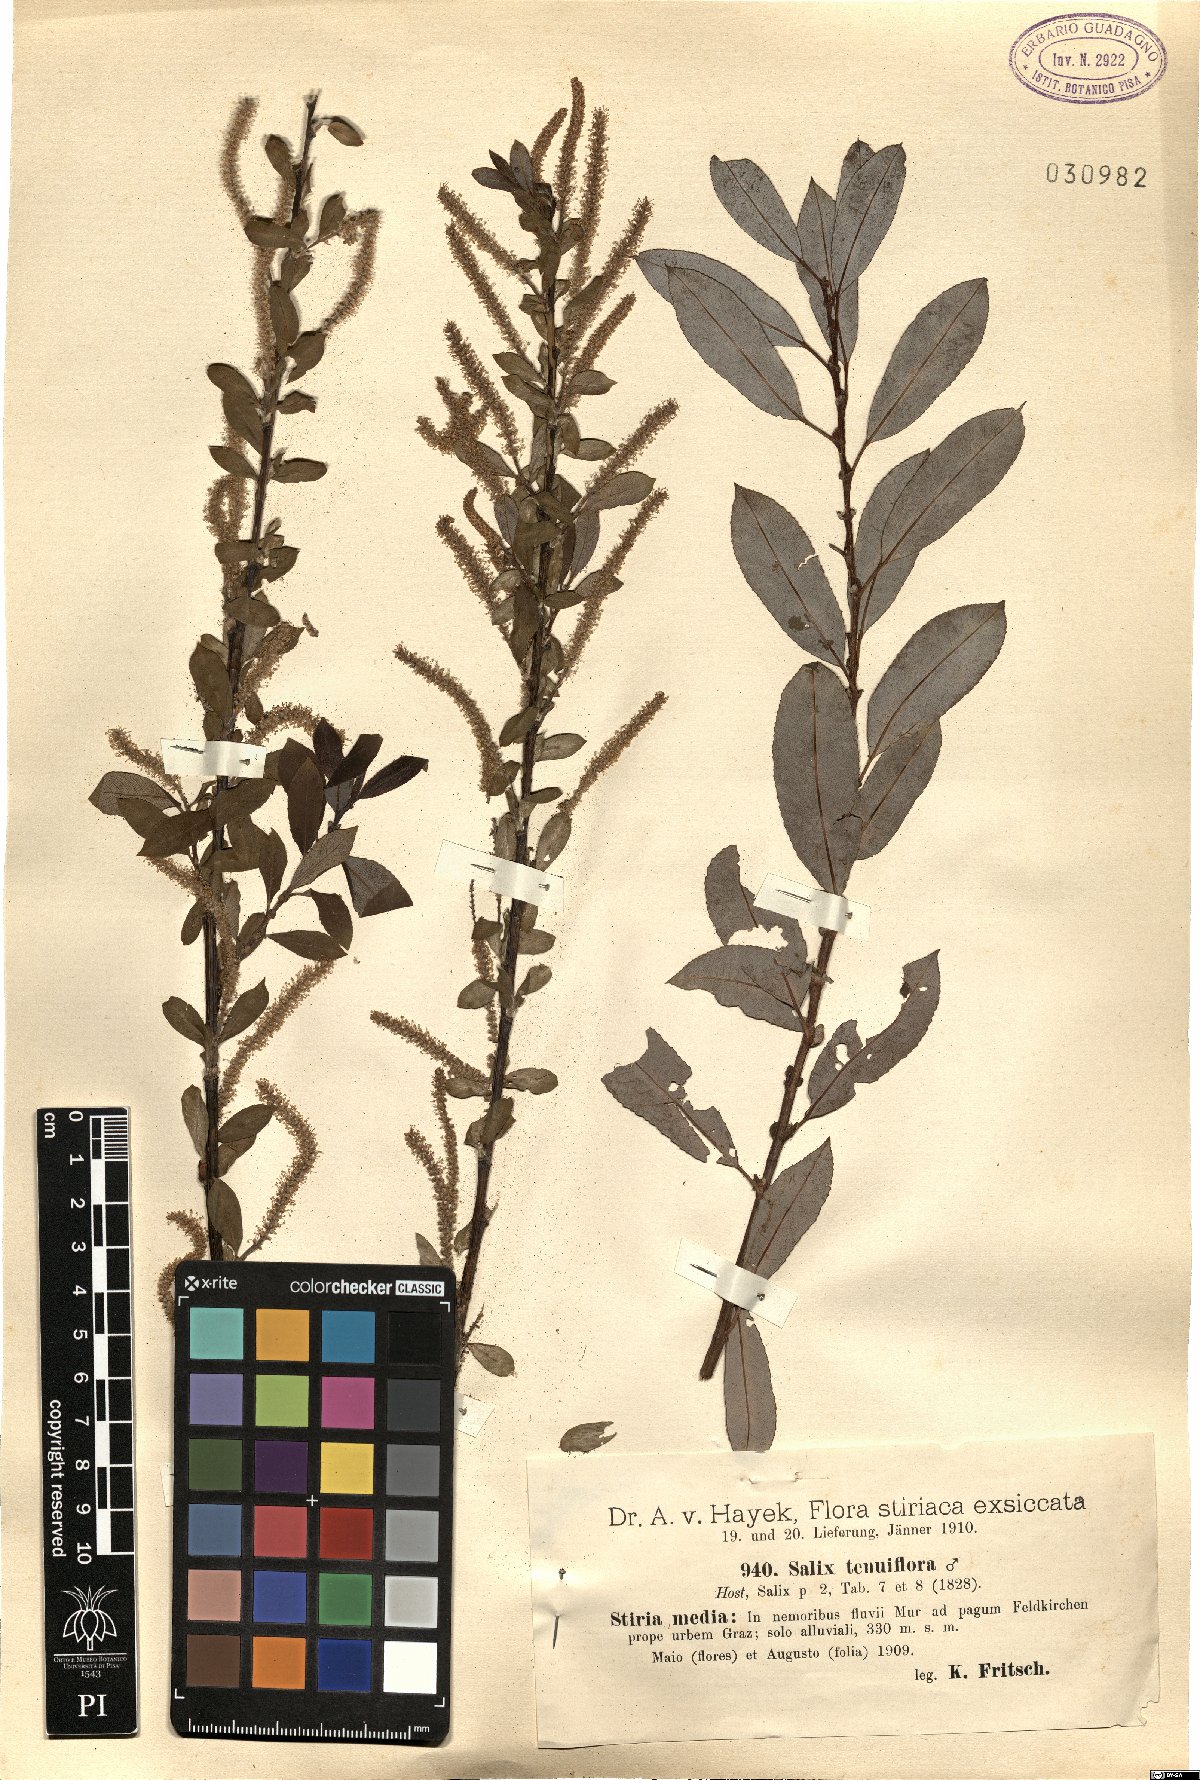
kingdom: Plantae
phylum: Tracheophyta
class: Magnoliopsida
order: Malpighiales
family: Salicaceae
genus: Salix
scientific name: Salix triandra
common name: Almond willow
